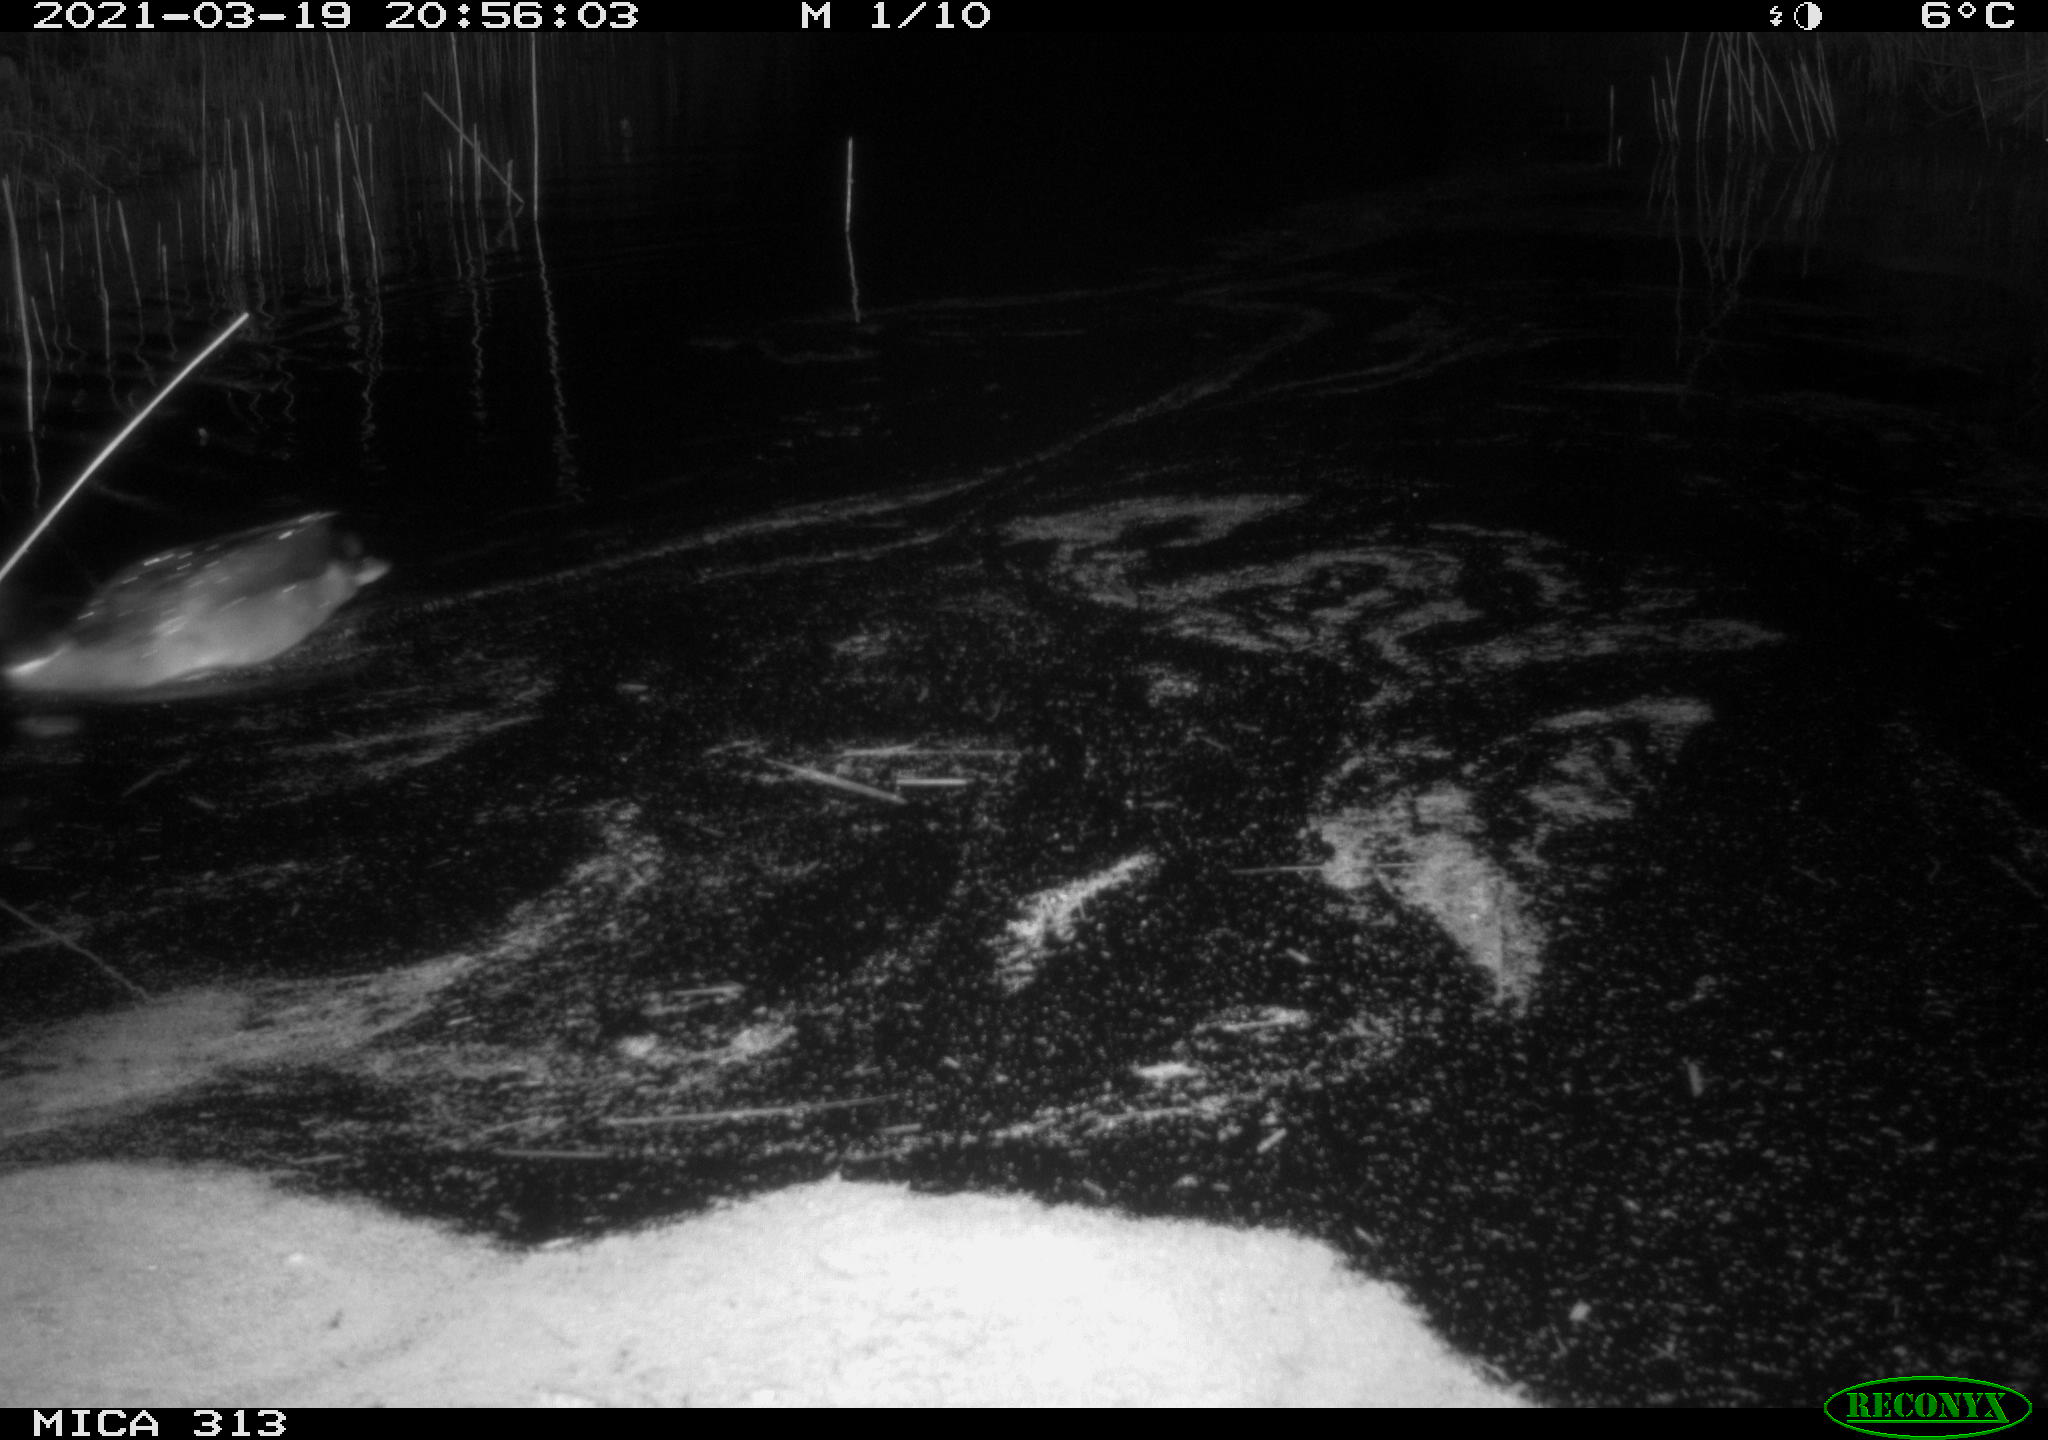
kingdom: Animalia
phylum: Chordata
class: Aves
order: Anseriformes
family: Anatidae
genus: Anas
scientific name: Anas platyrhynchos
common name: Mallard
